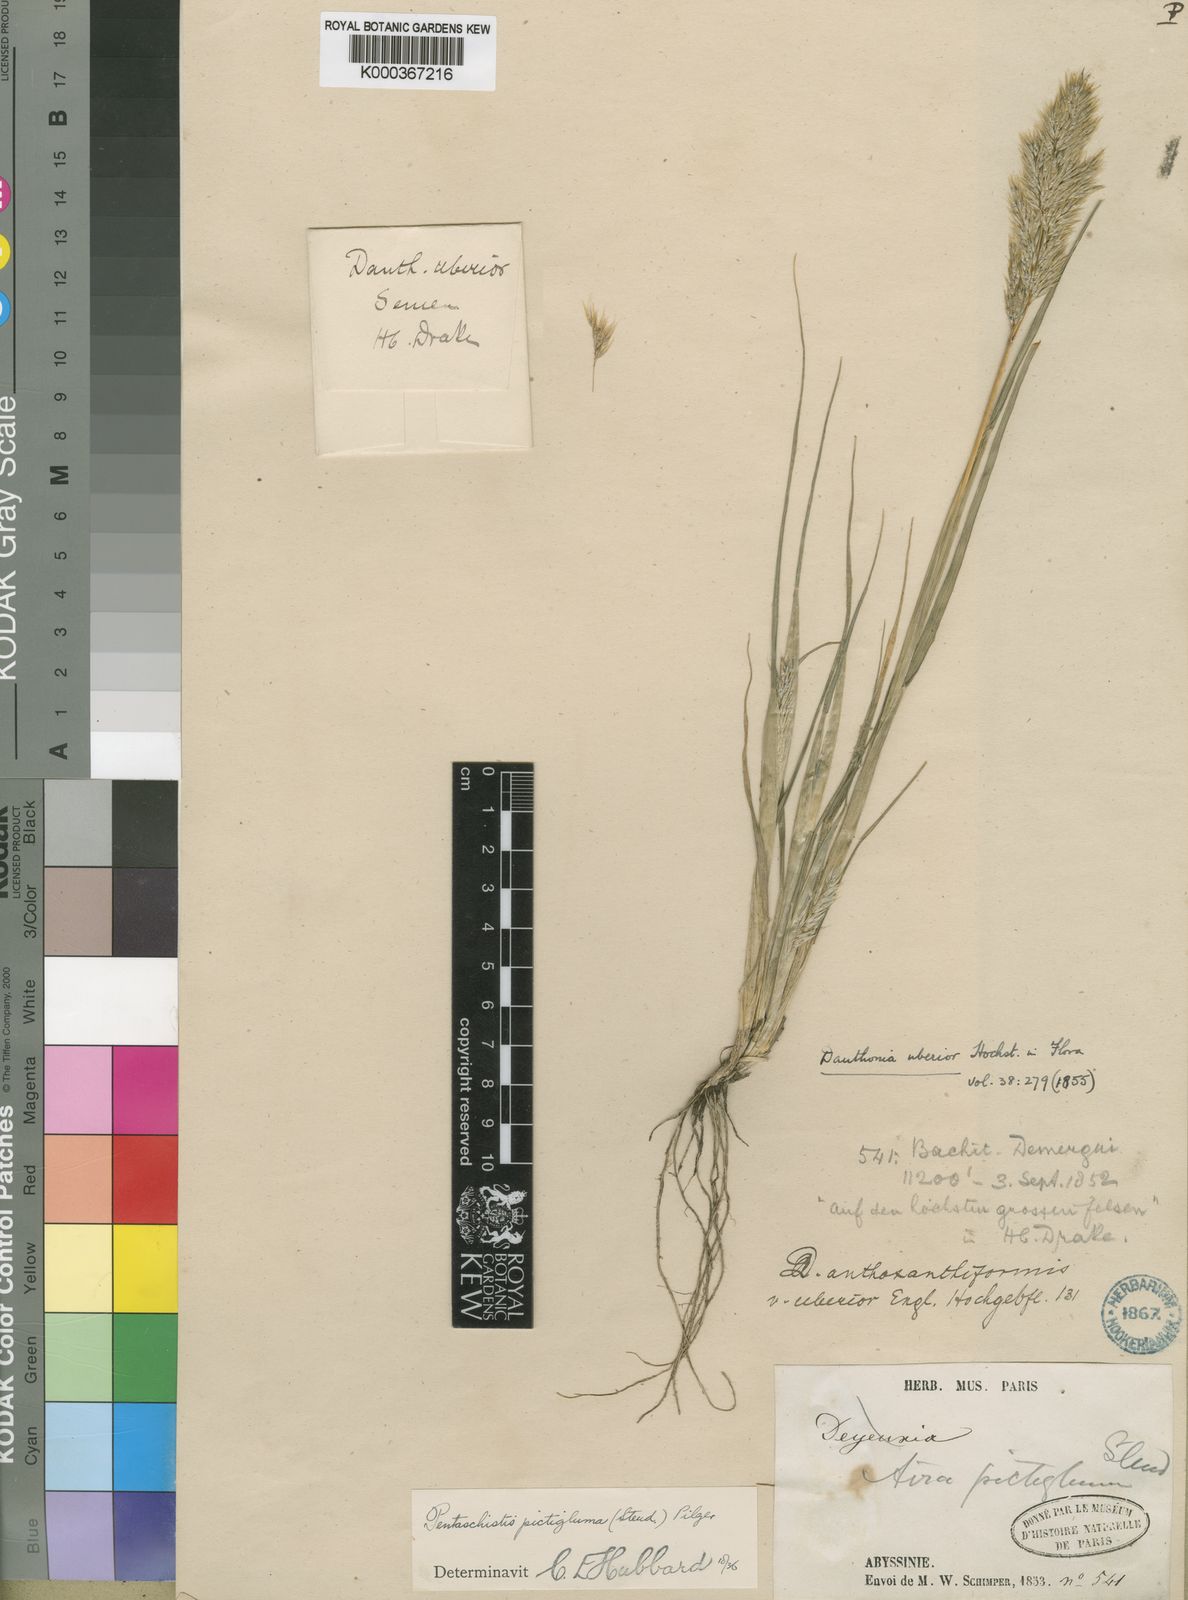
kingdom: Plantae
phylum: Tracheophyta
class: Liliopsida
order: Poales
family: Poaceae
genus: Pentameris
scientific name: Pentameris pictigluma
